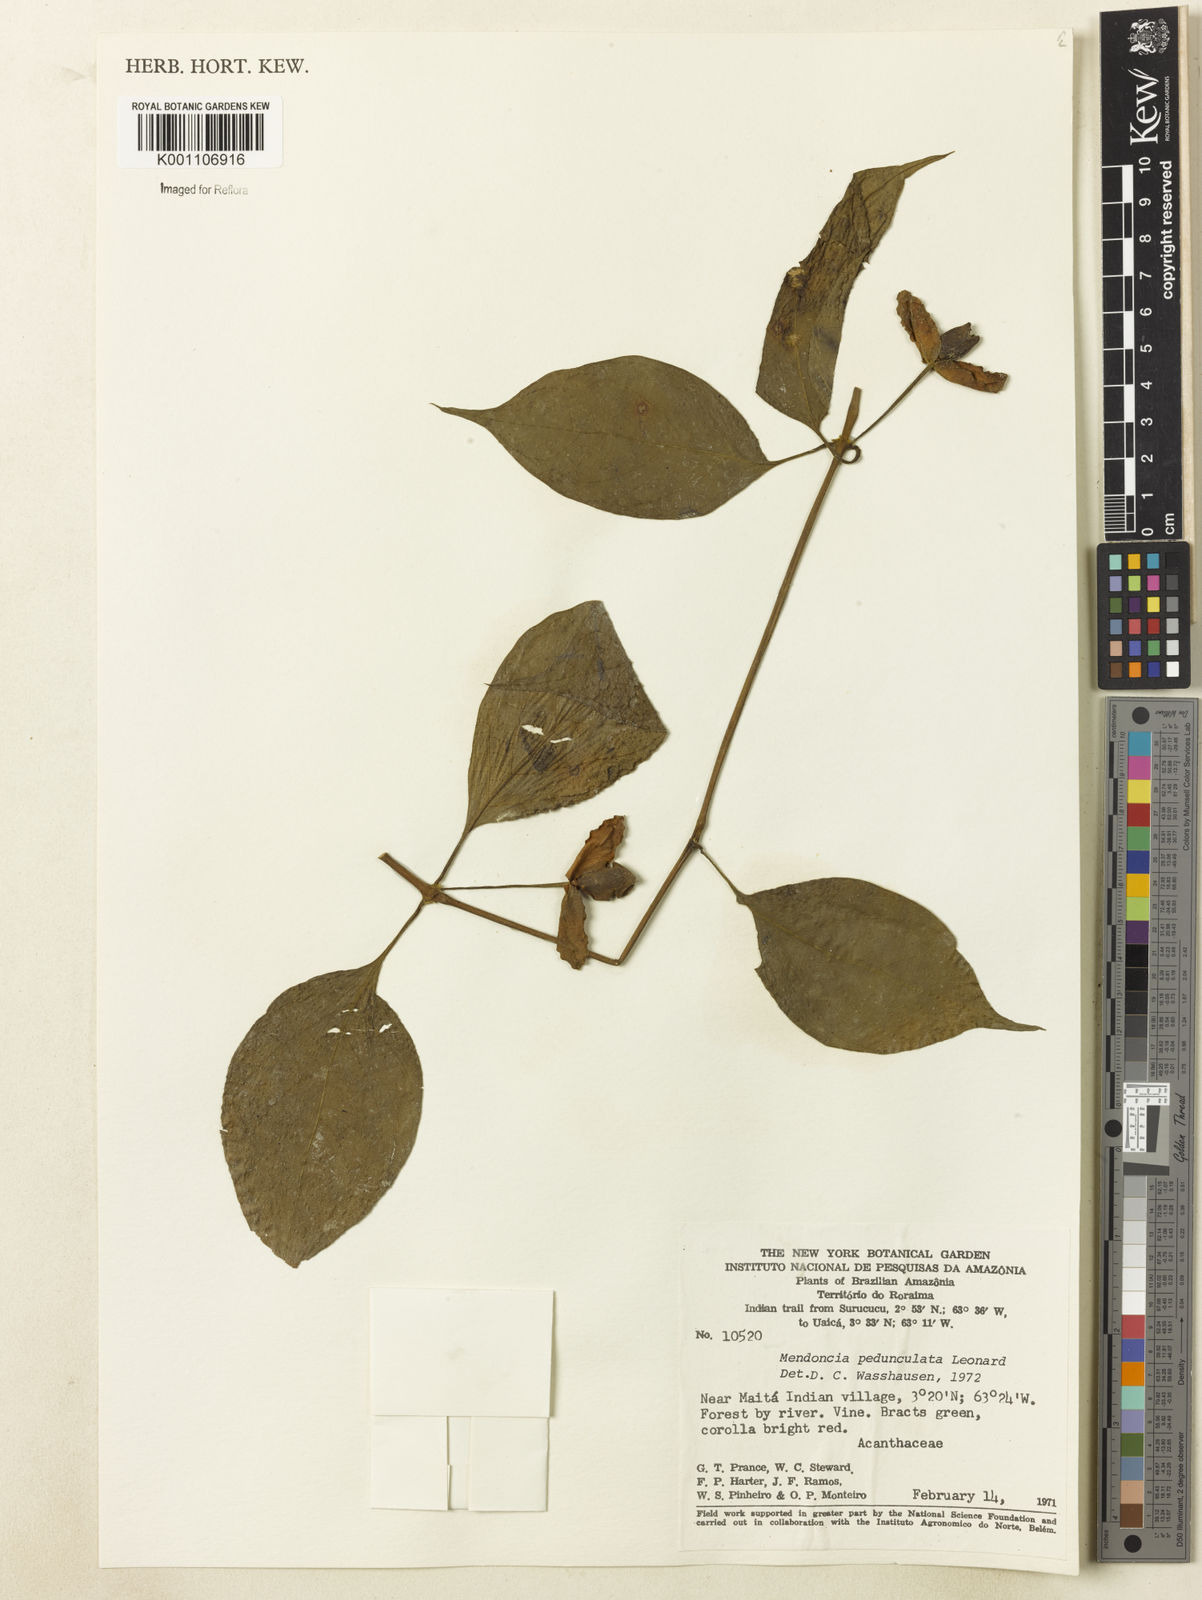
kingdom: Plantae
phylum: Tracheophyta
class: Magnoliopsida
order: Lamiales
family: Acanthaceae
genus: Mendoncia
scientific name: Mendoncia pedunculata
